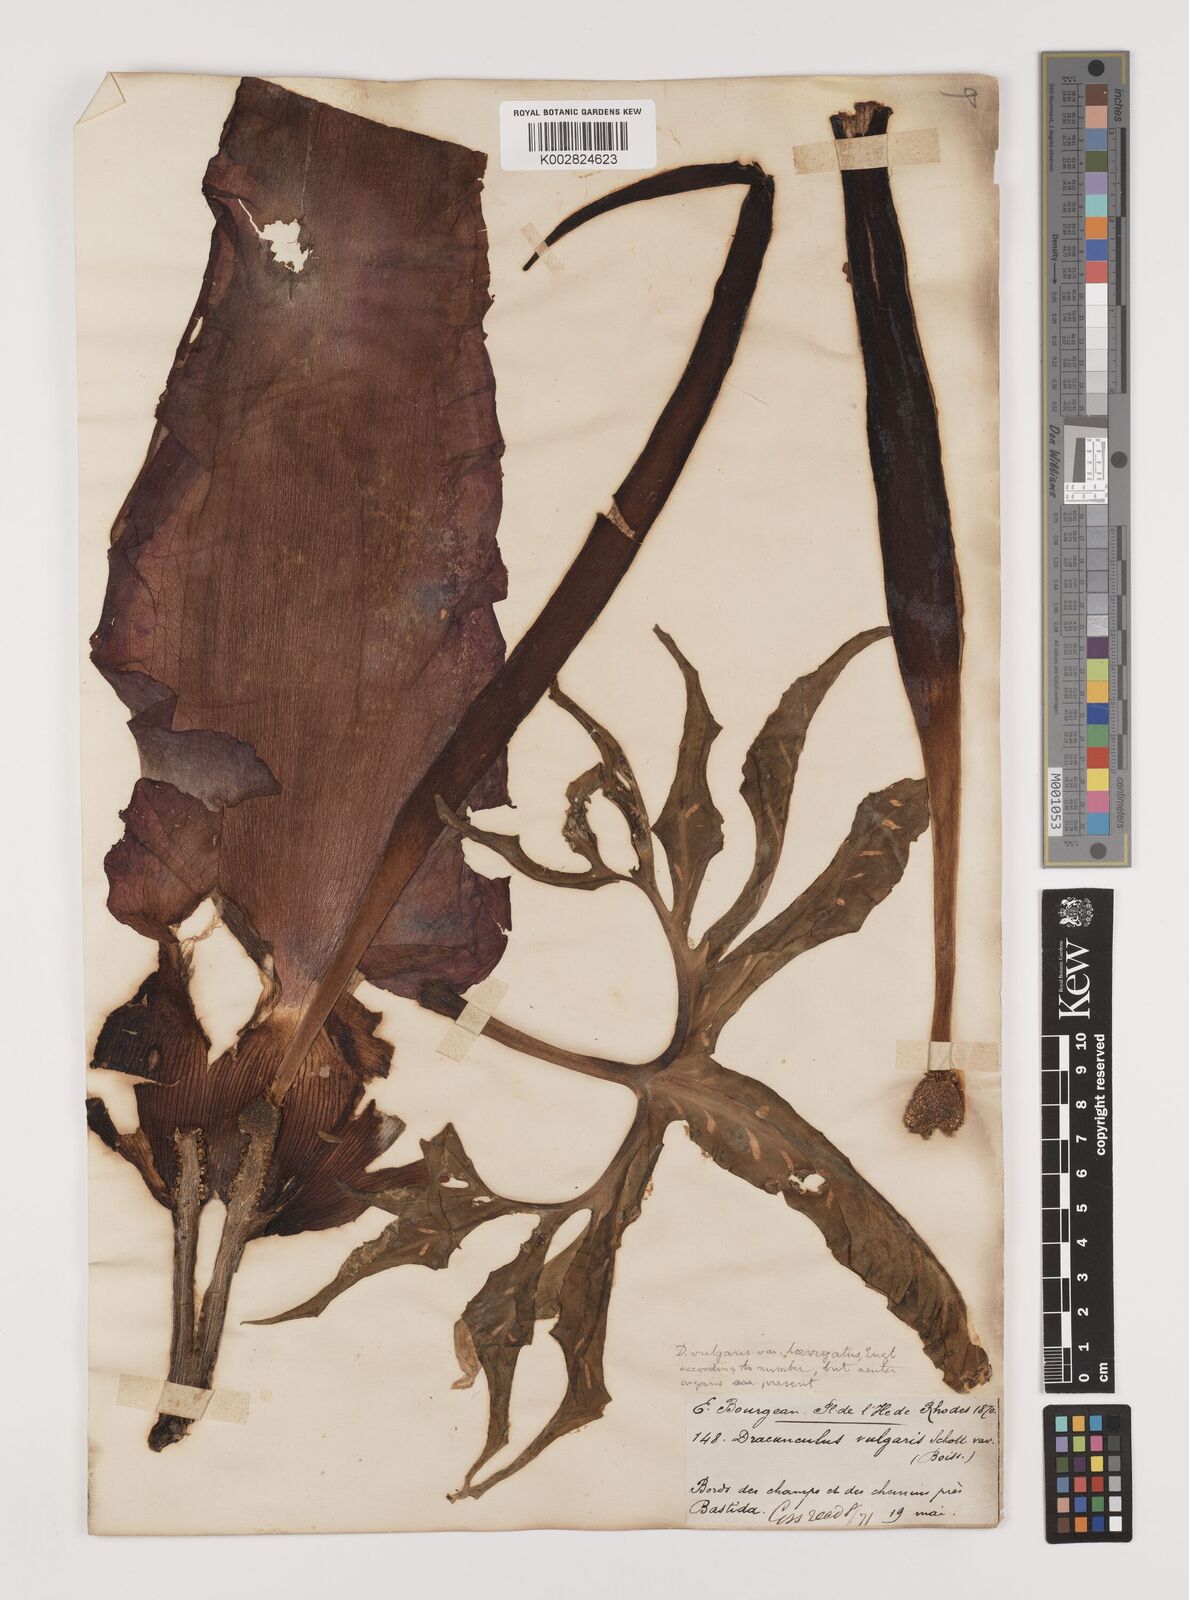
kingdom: Plantae
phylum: Tracheophyta
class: Liliopsida
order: Alismatales
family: Araceae
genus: Dracunculus
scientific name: Dracunculus vulgaris
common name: Dragon arum
